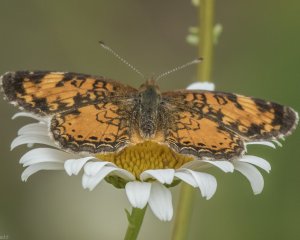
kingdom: Animalia
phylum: Arthropoda
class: Insecta
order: Lepidoptera
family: Nymphalidae
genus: Phyciodes
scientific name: Phyciodes tharos
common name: Northern Crescent
